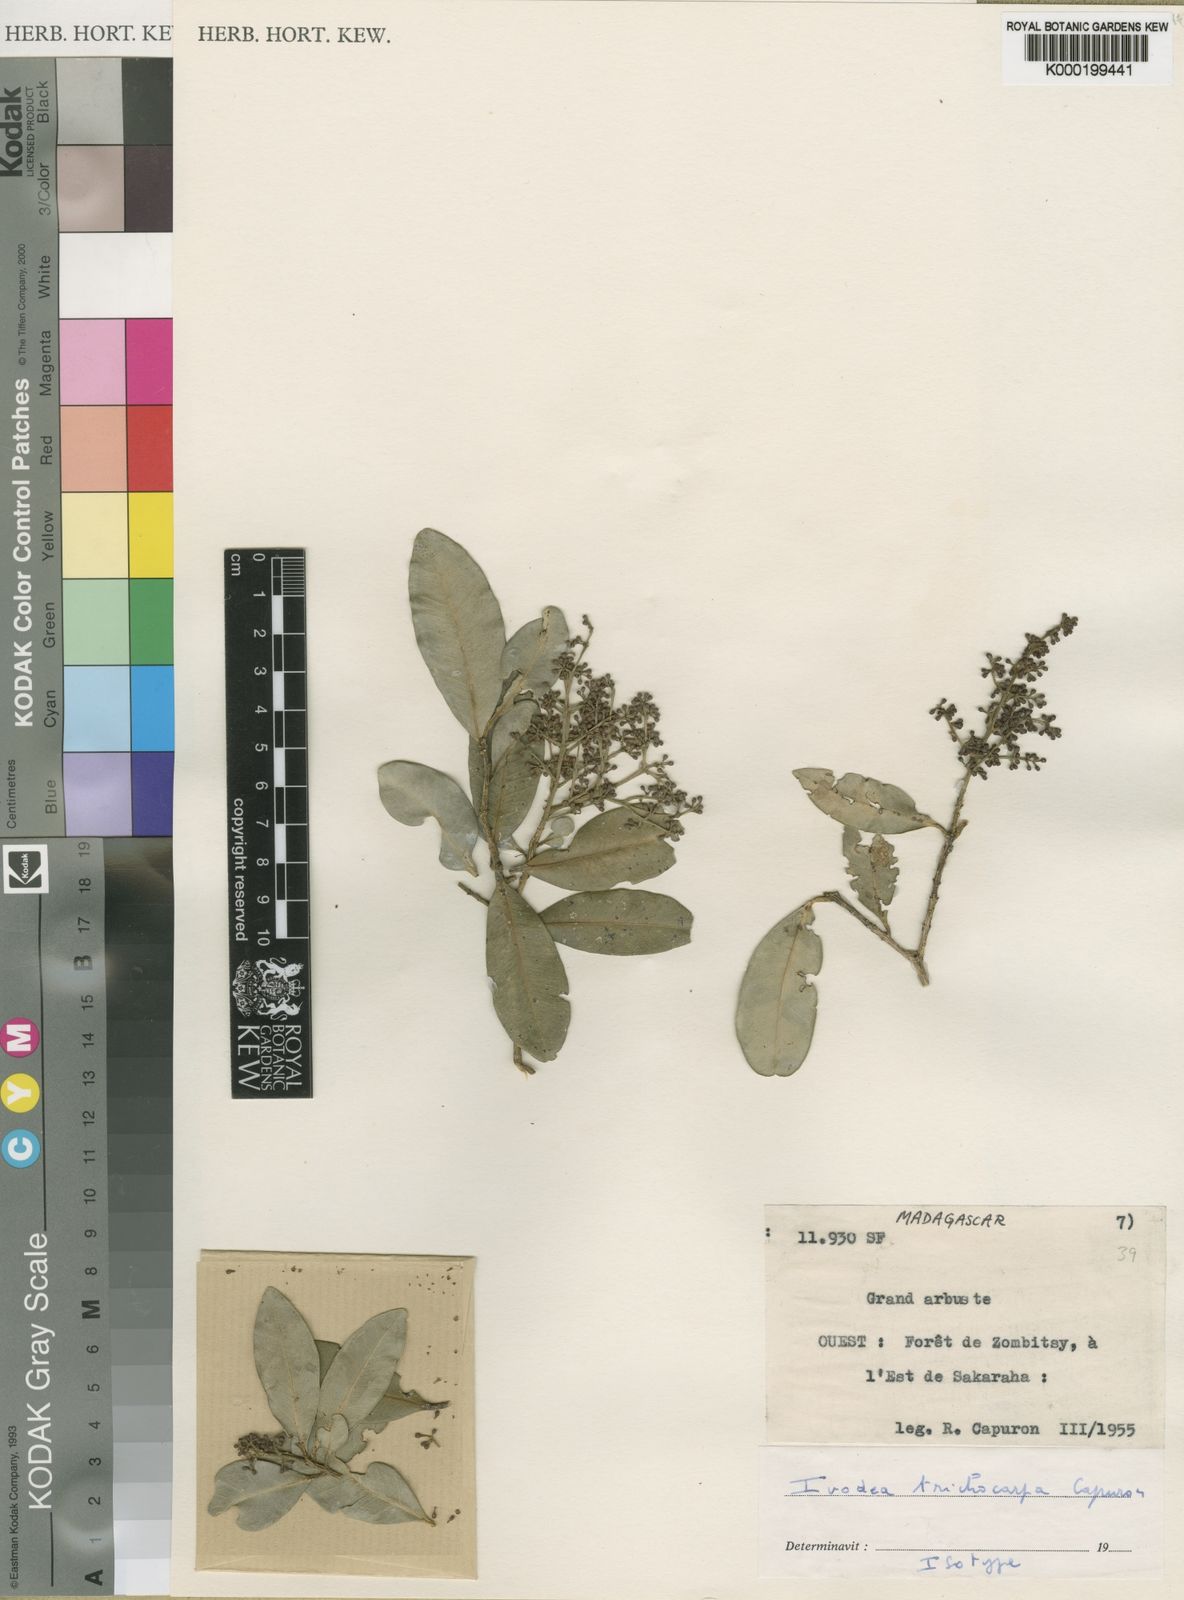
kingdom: Plantae
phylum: Tracheophyta
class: Magnoliopsida
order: Sapindales
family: Rutaceae
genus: Ivodea
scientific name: Ivodea lanceolata
